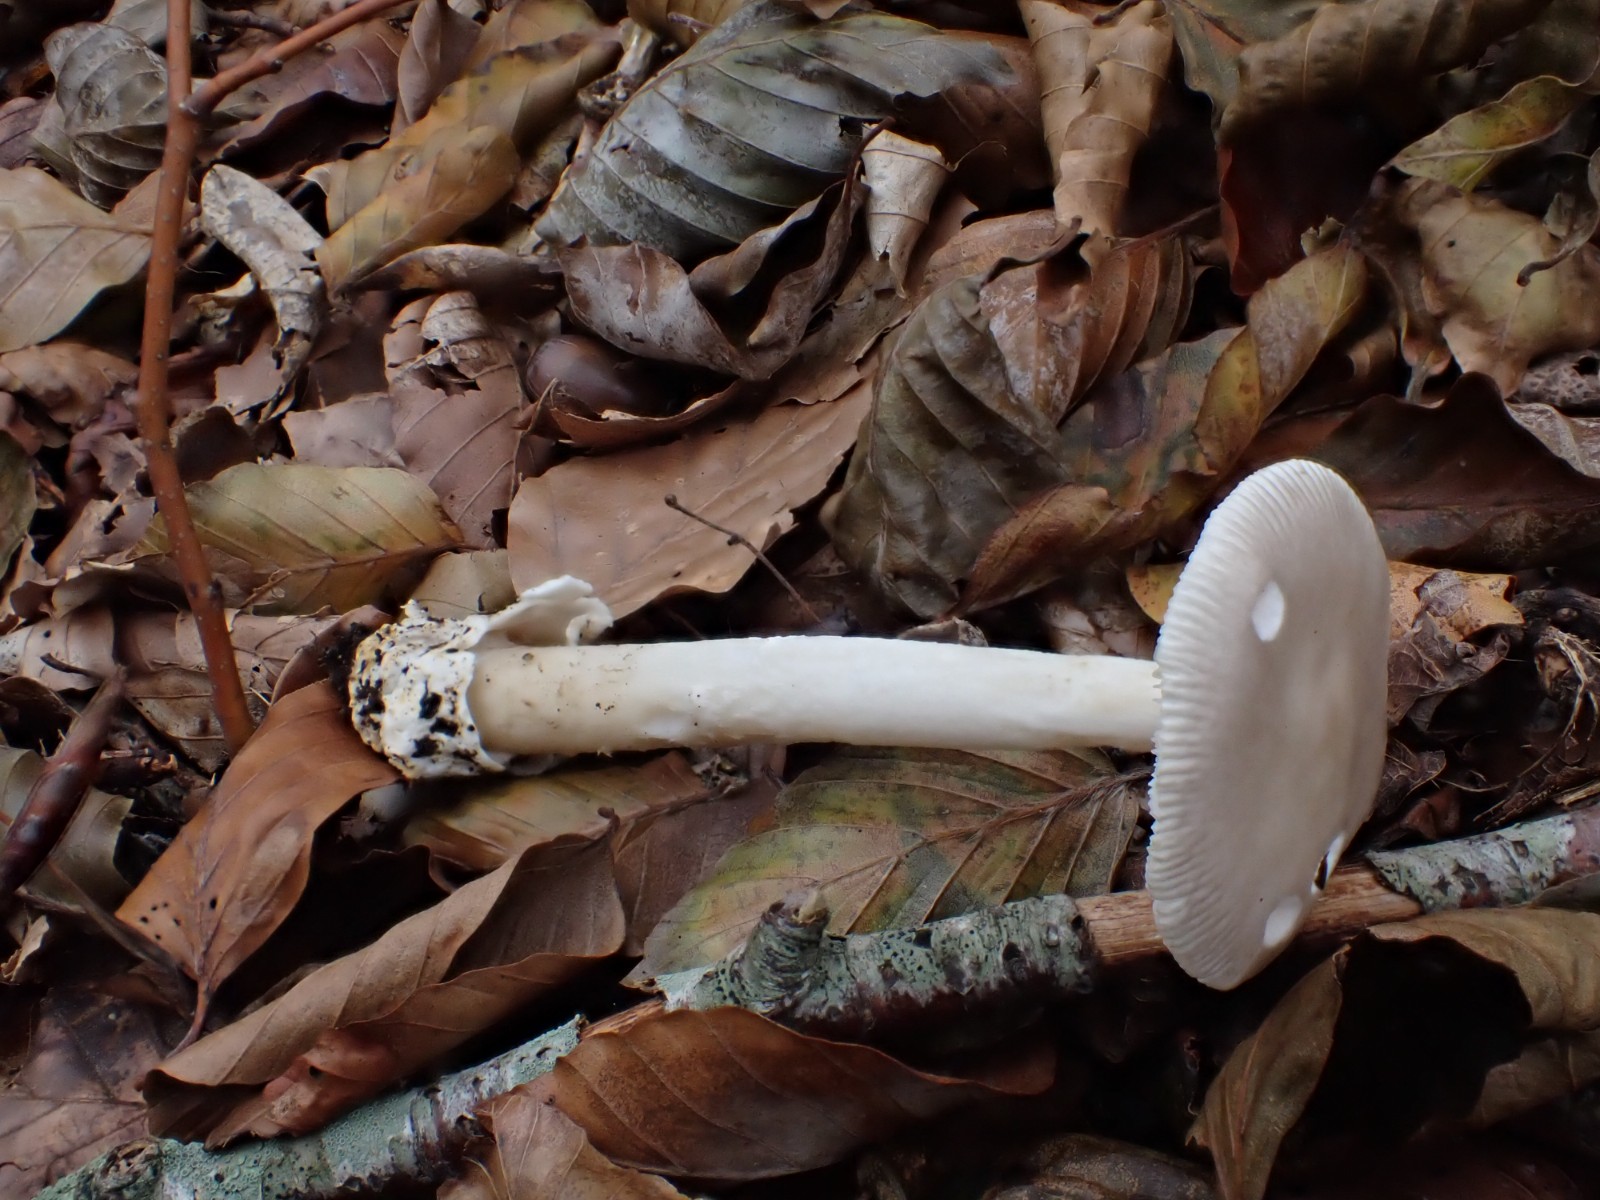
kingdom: Fungi
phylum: Basidiomycota
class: Agaricomycetes
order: Agaricales
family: Amanitaceae
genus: Amanita
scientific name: Amanita argentea
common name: sølvgrå kam-fluesvamp
